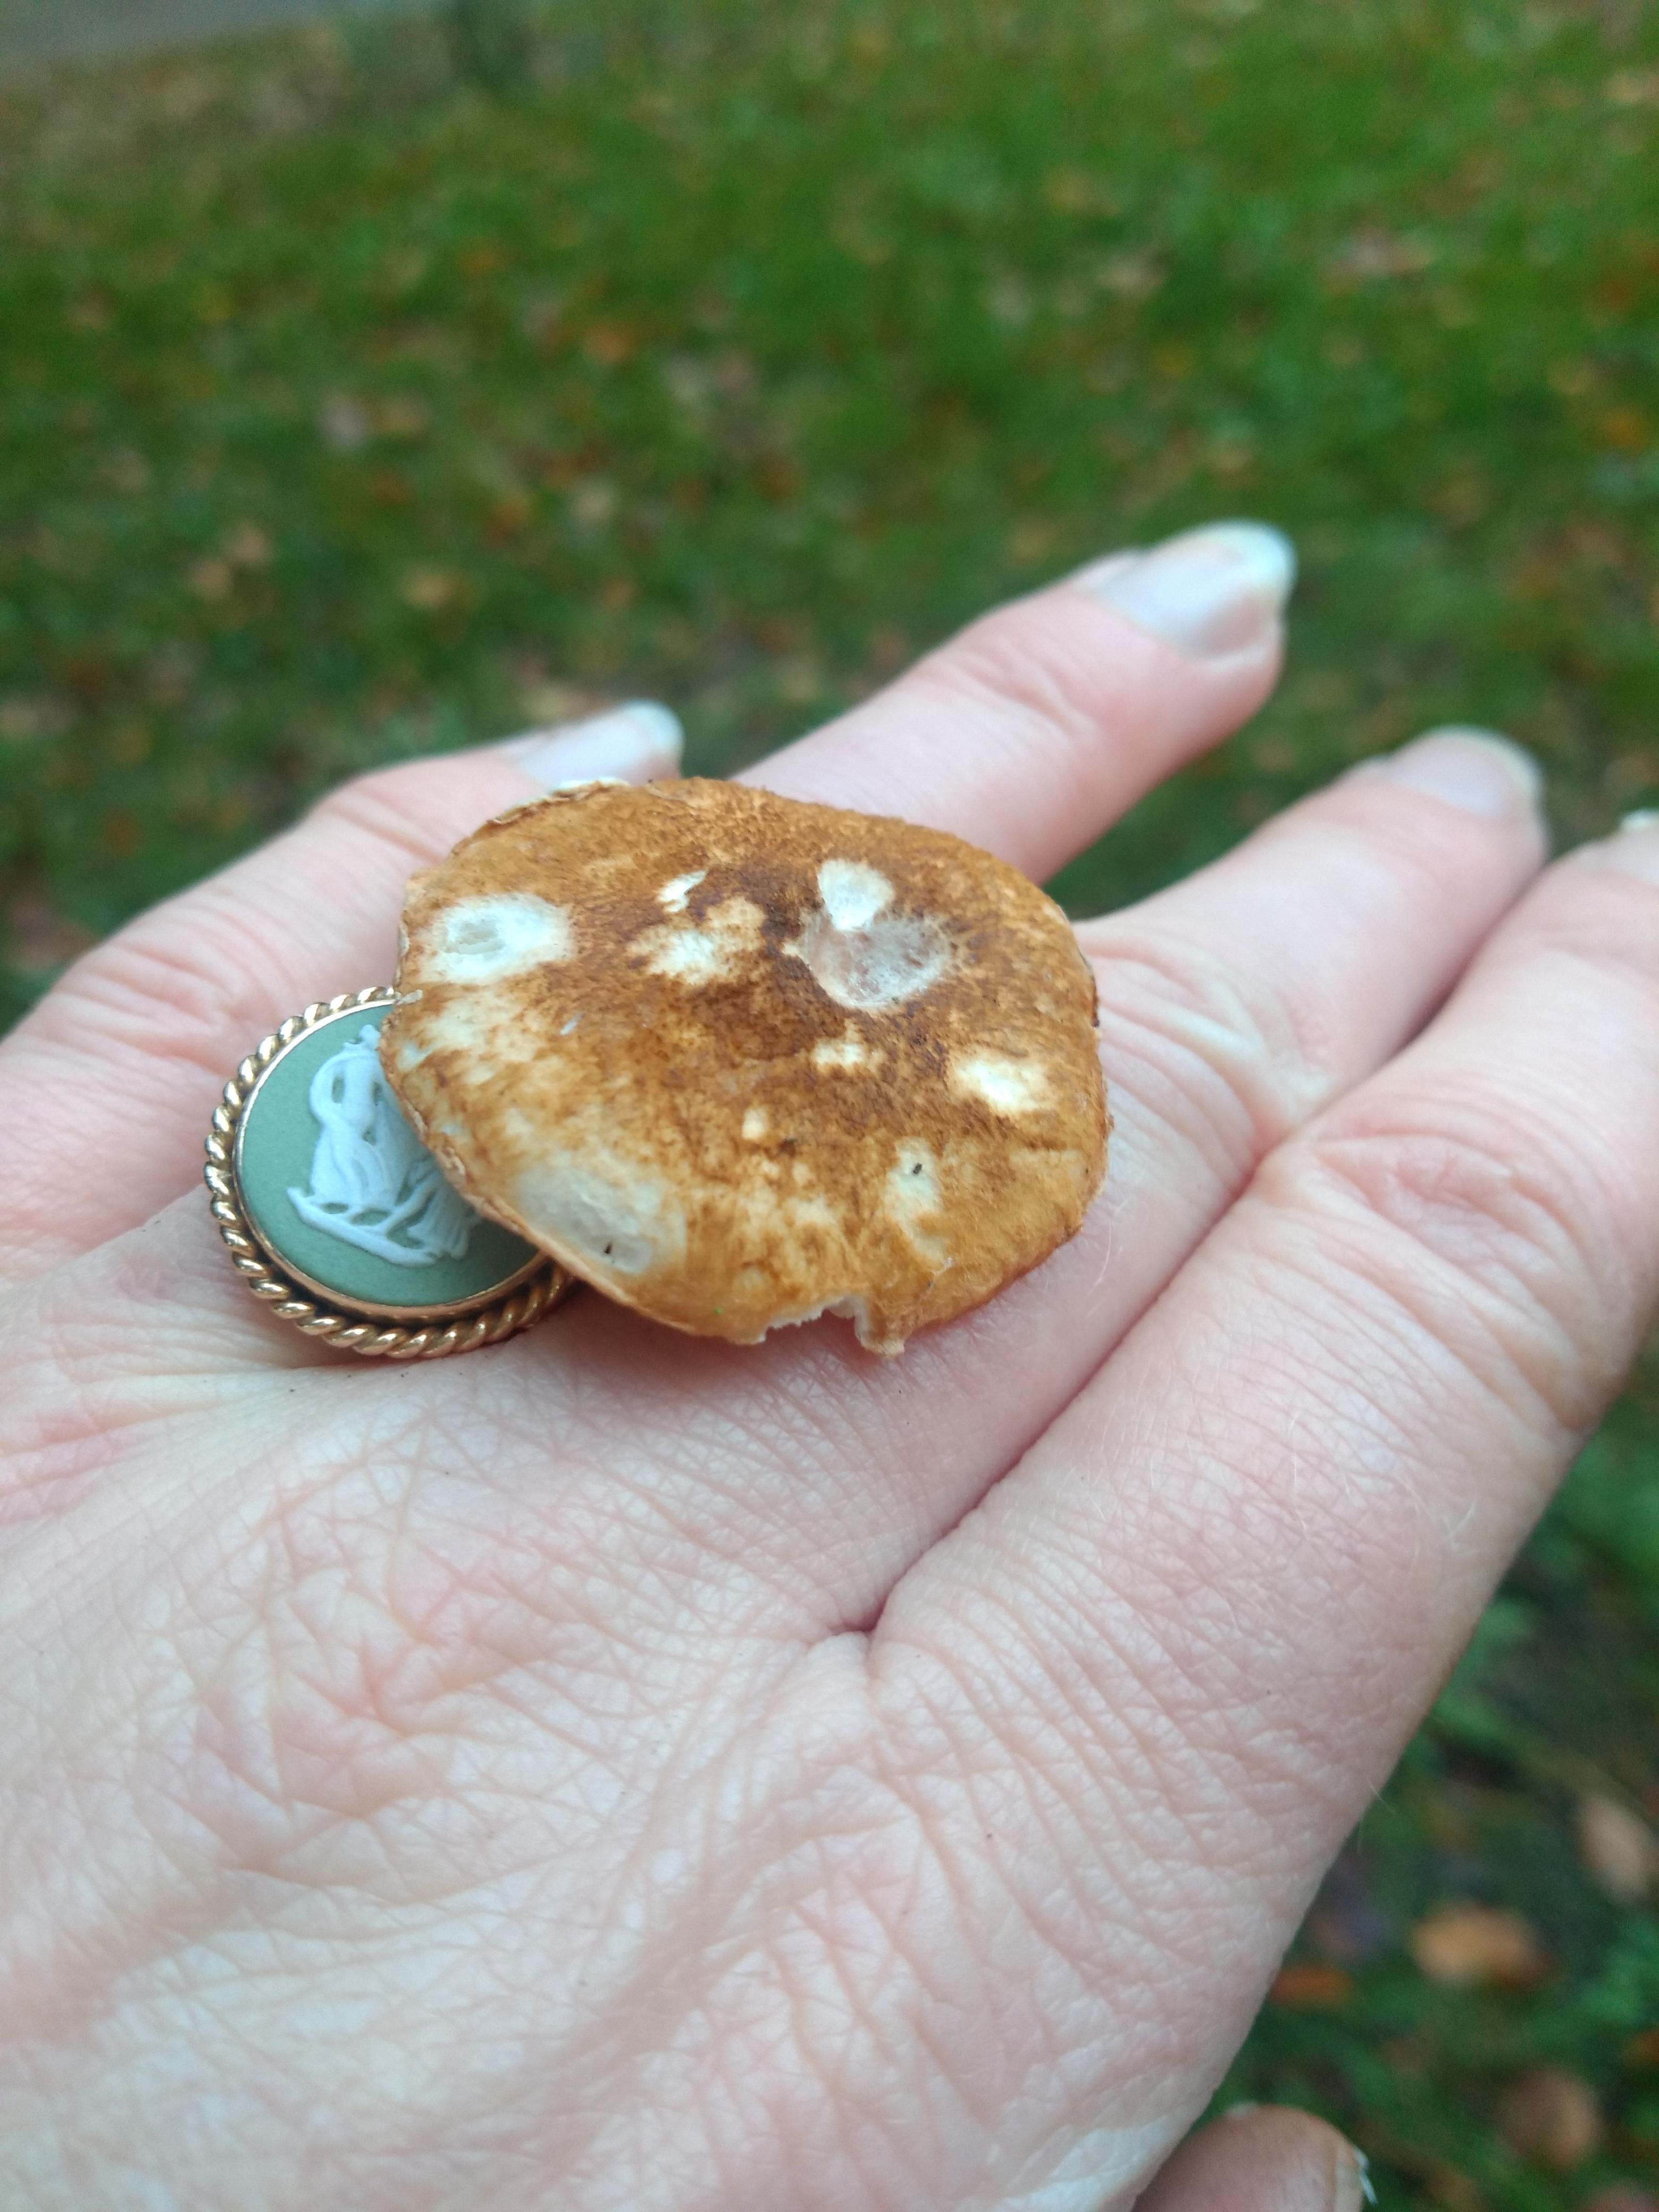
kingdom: Fungi
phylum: Basidiomycota
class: Agaricomycetes
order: Agaricales
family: Agaricaceae
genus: Leucocoprinus
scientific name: Leucocoprinus straminellus
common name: rustbrun parasolhat
